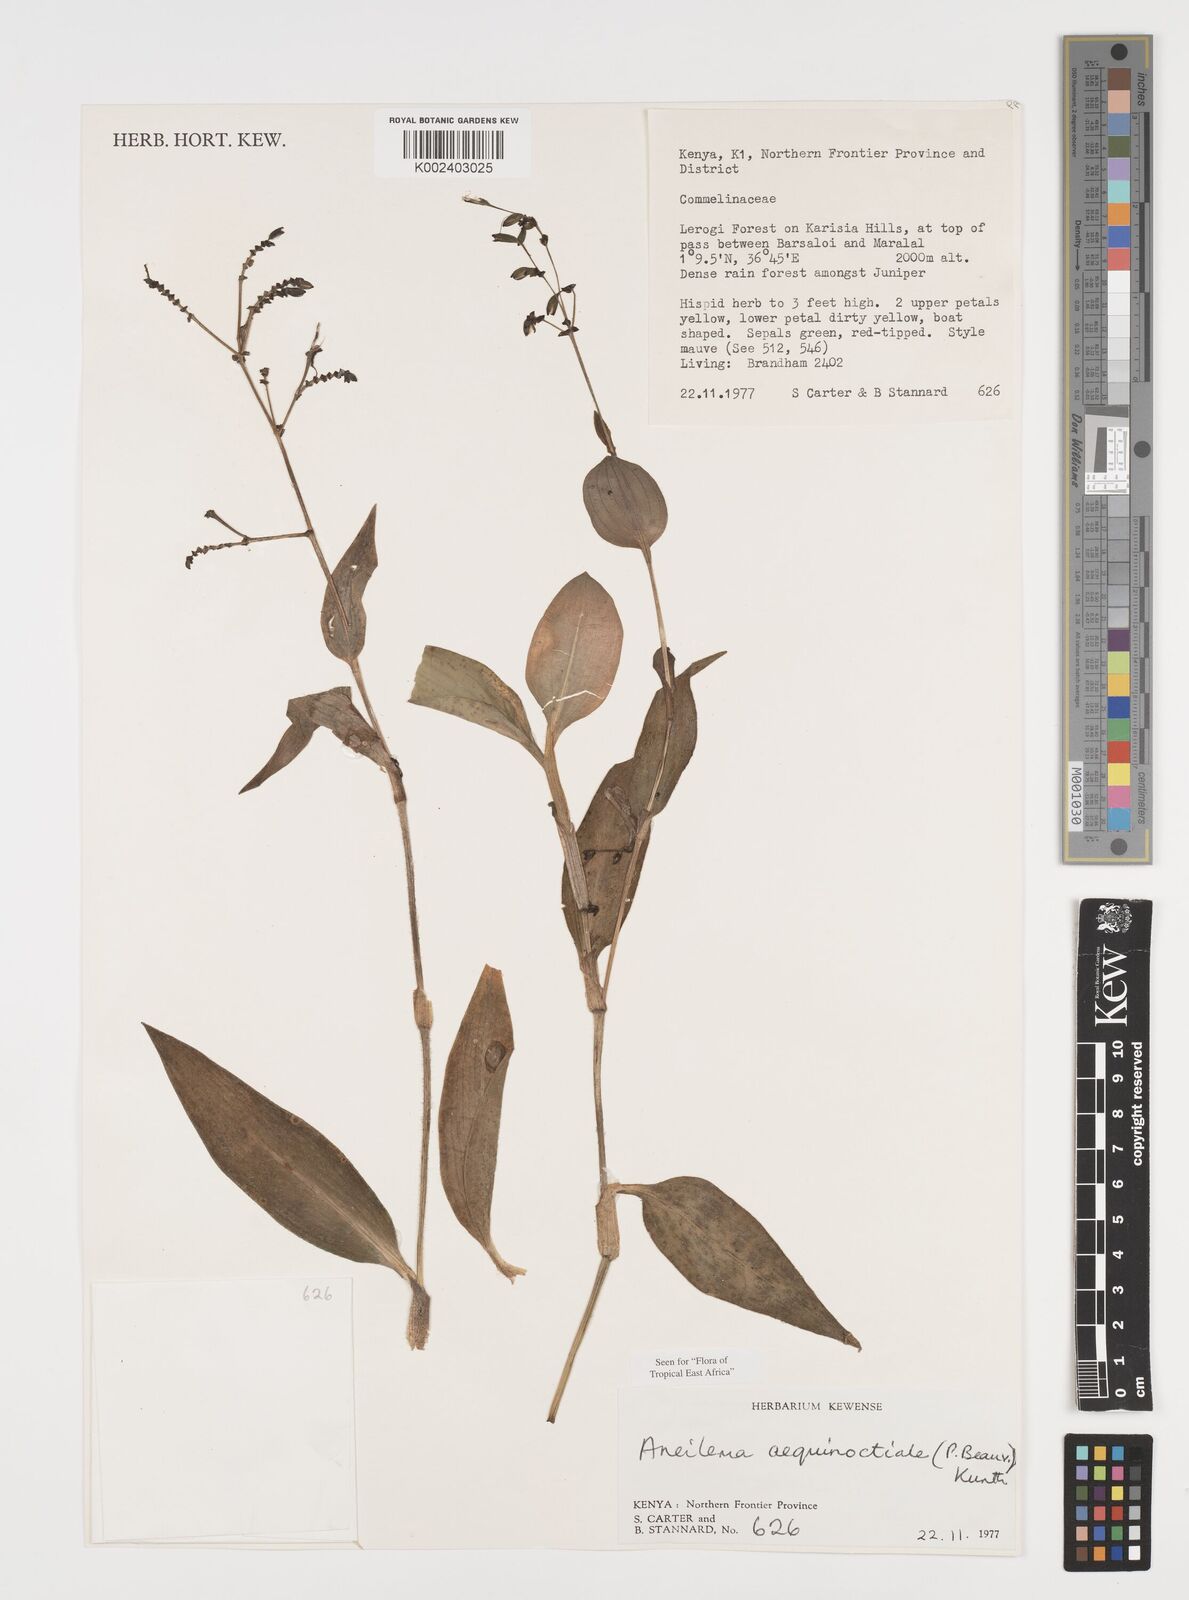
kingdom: Plantae
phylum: Tracheophyta
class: Liliopsida
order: Commelinales
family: Commelinaceae
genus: Aneilema
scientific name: Aneilema aequinoctiale
